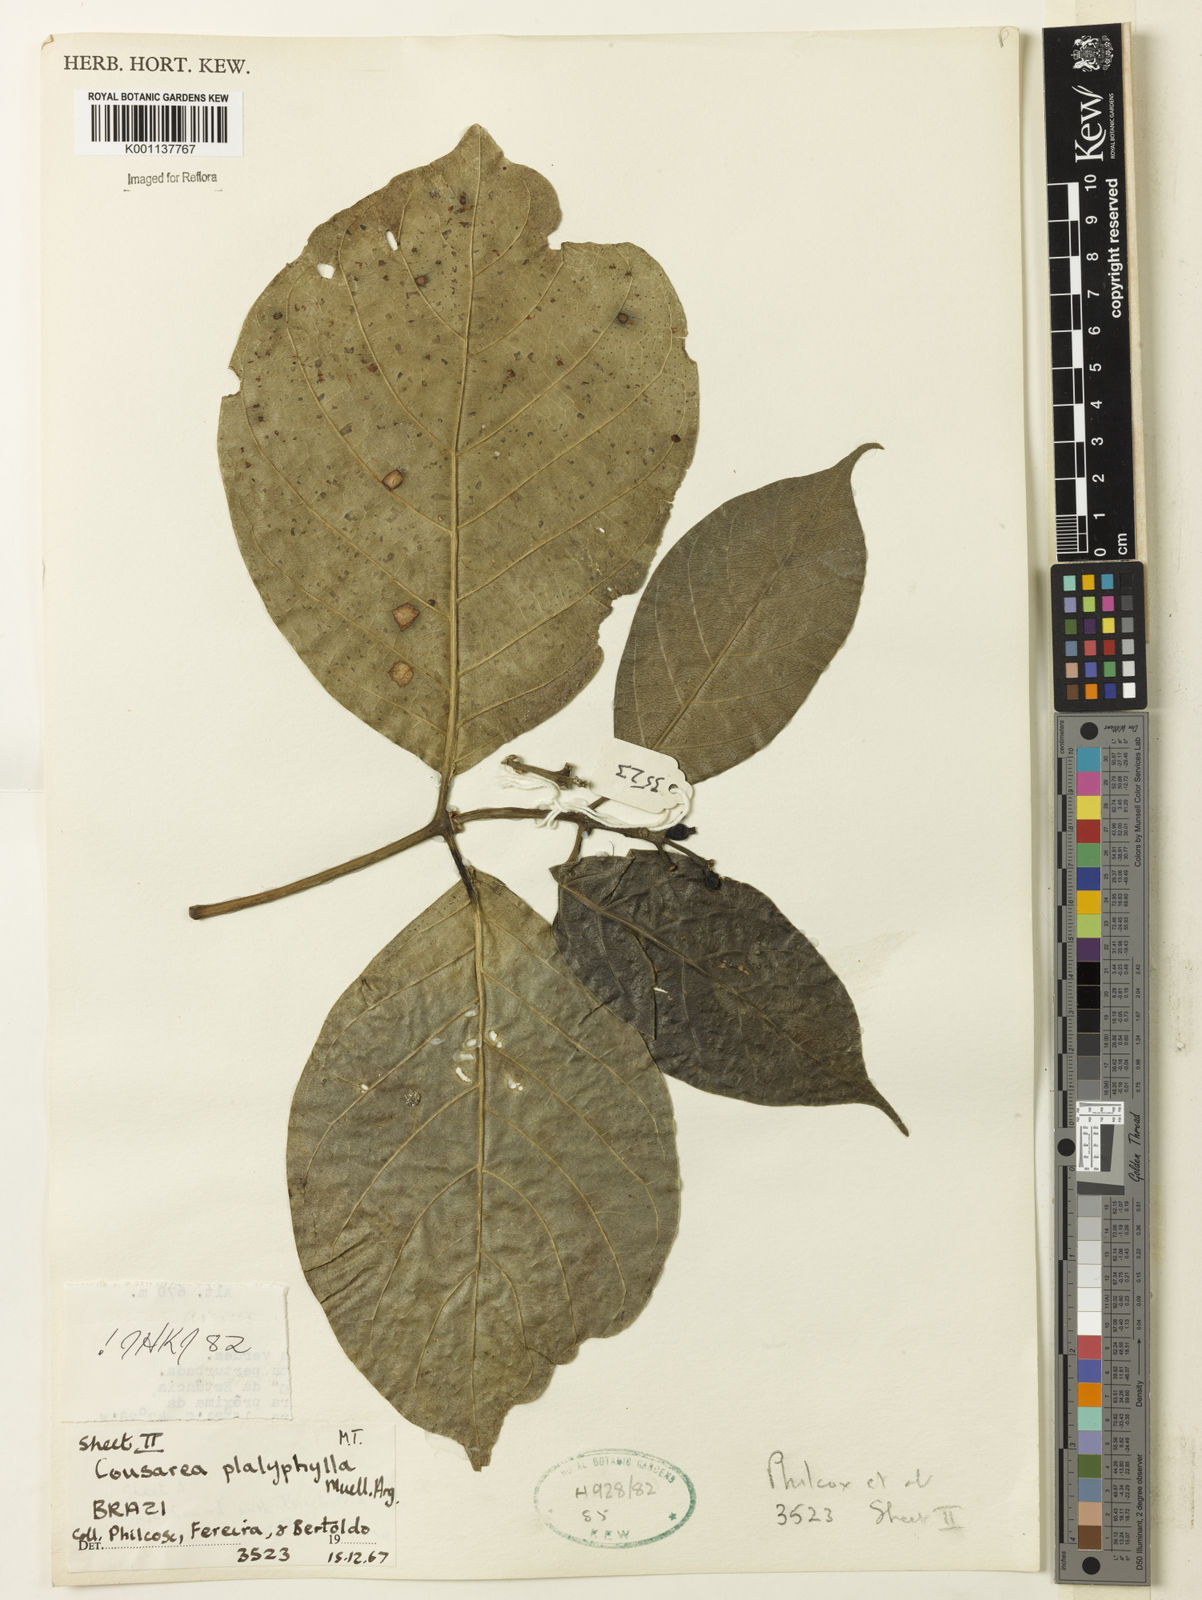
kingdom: Plantae
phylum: Tracheophyta
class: Magnoliopsida
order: Gentianales
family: Rubiaceae
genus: Coussarea
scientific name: Coussarea
